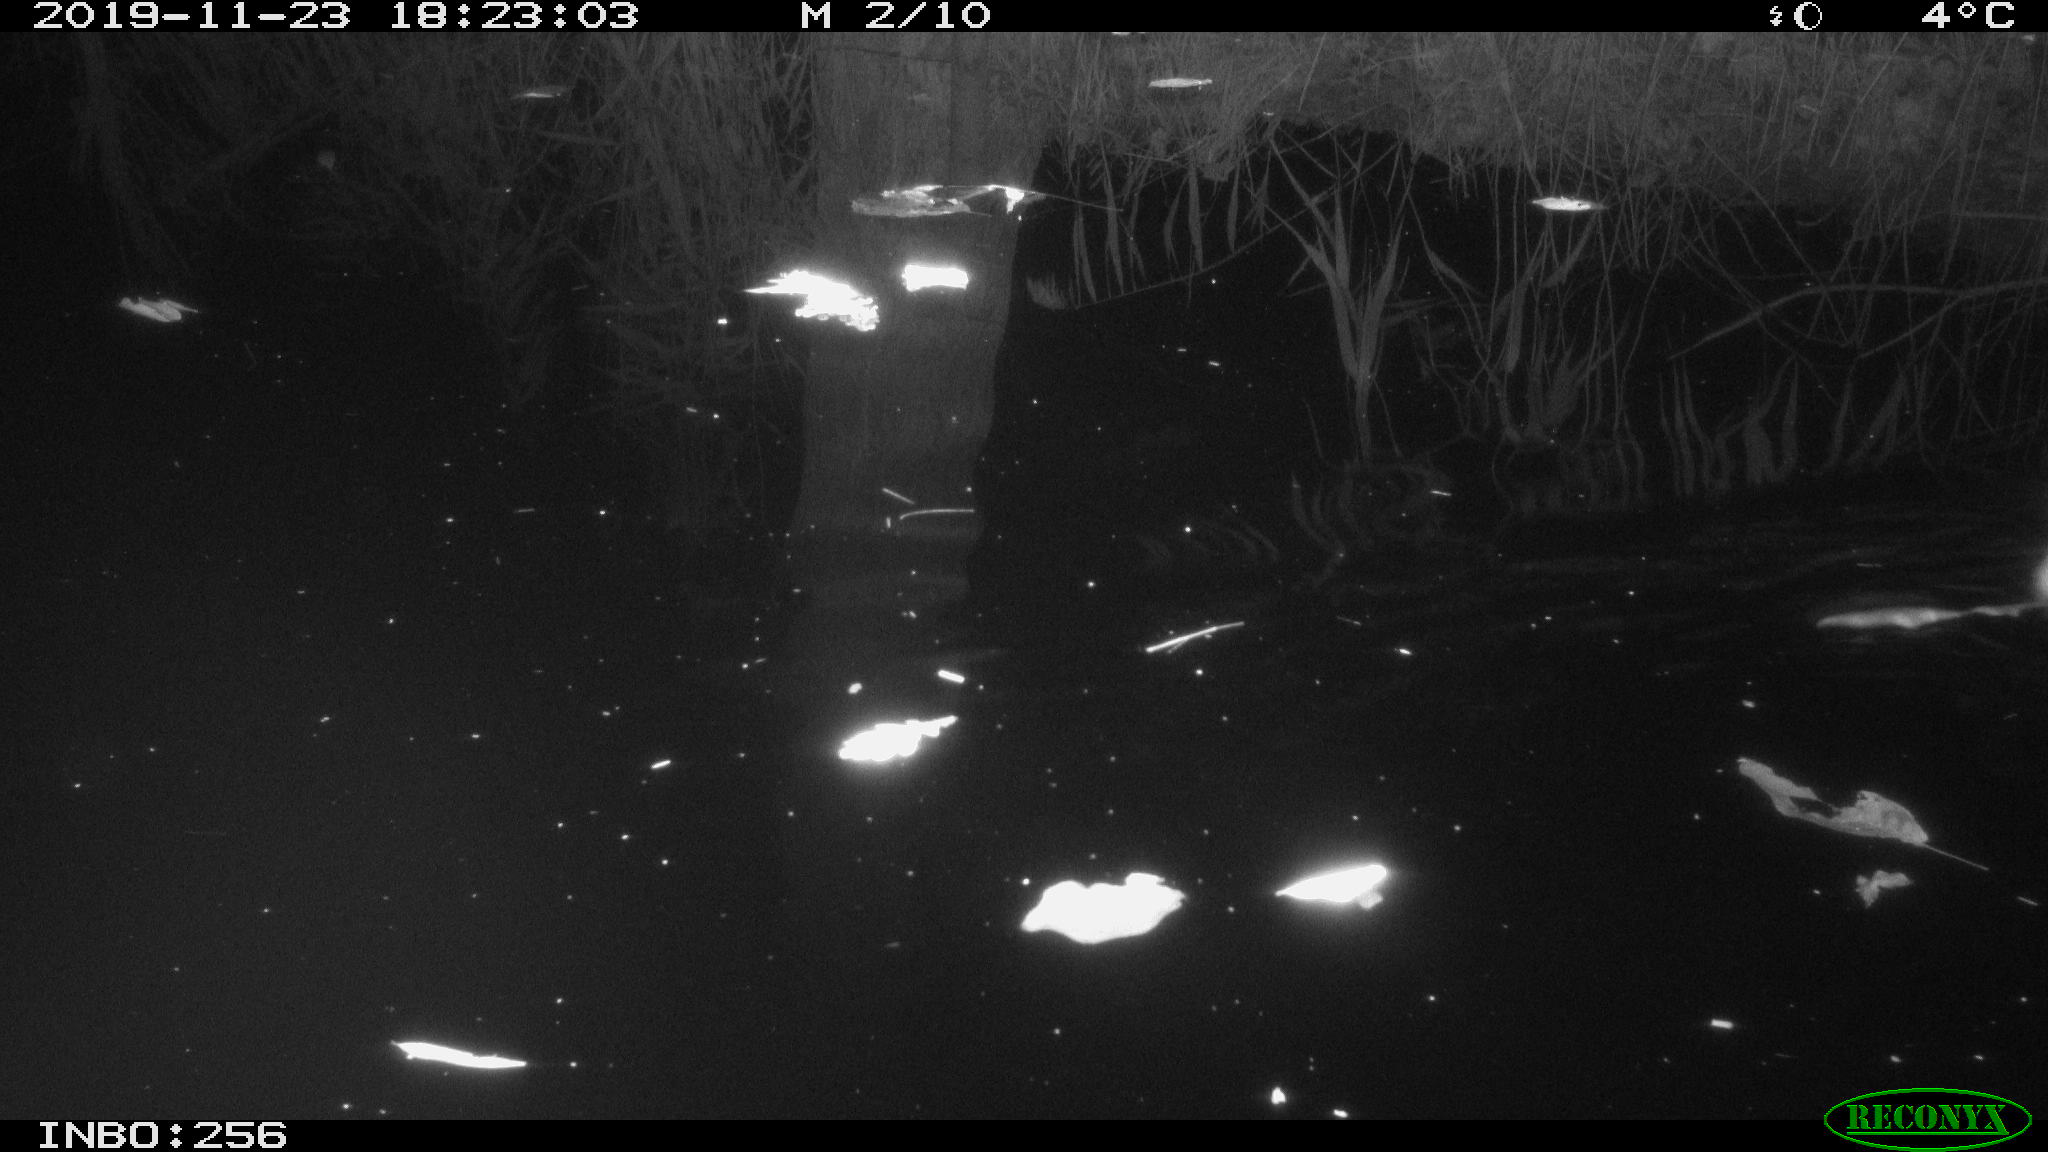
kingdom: Animalia
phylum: Chordata
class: Mammalia
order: Rodentia
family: Muridae
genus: Rattus
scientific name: Rattus norvegicus
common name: Brown rat
